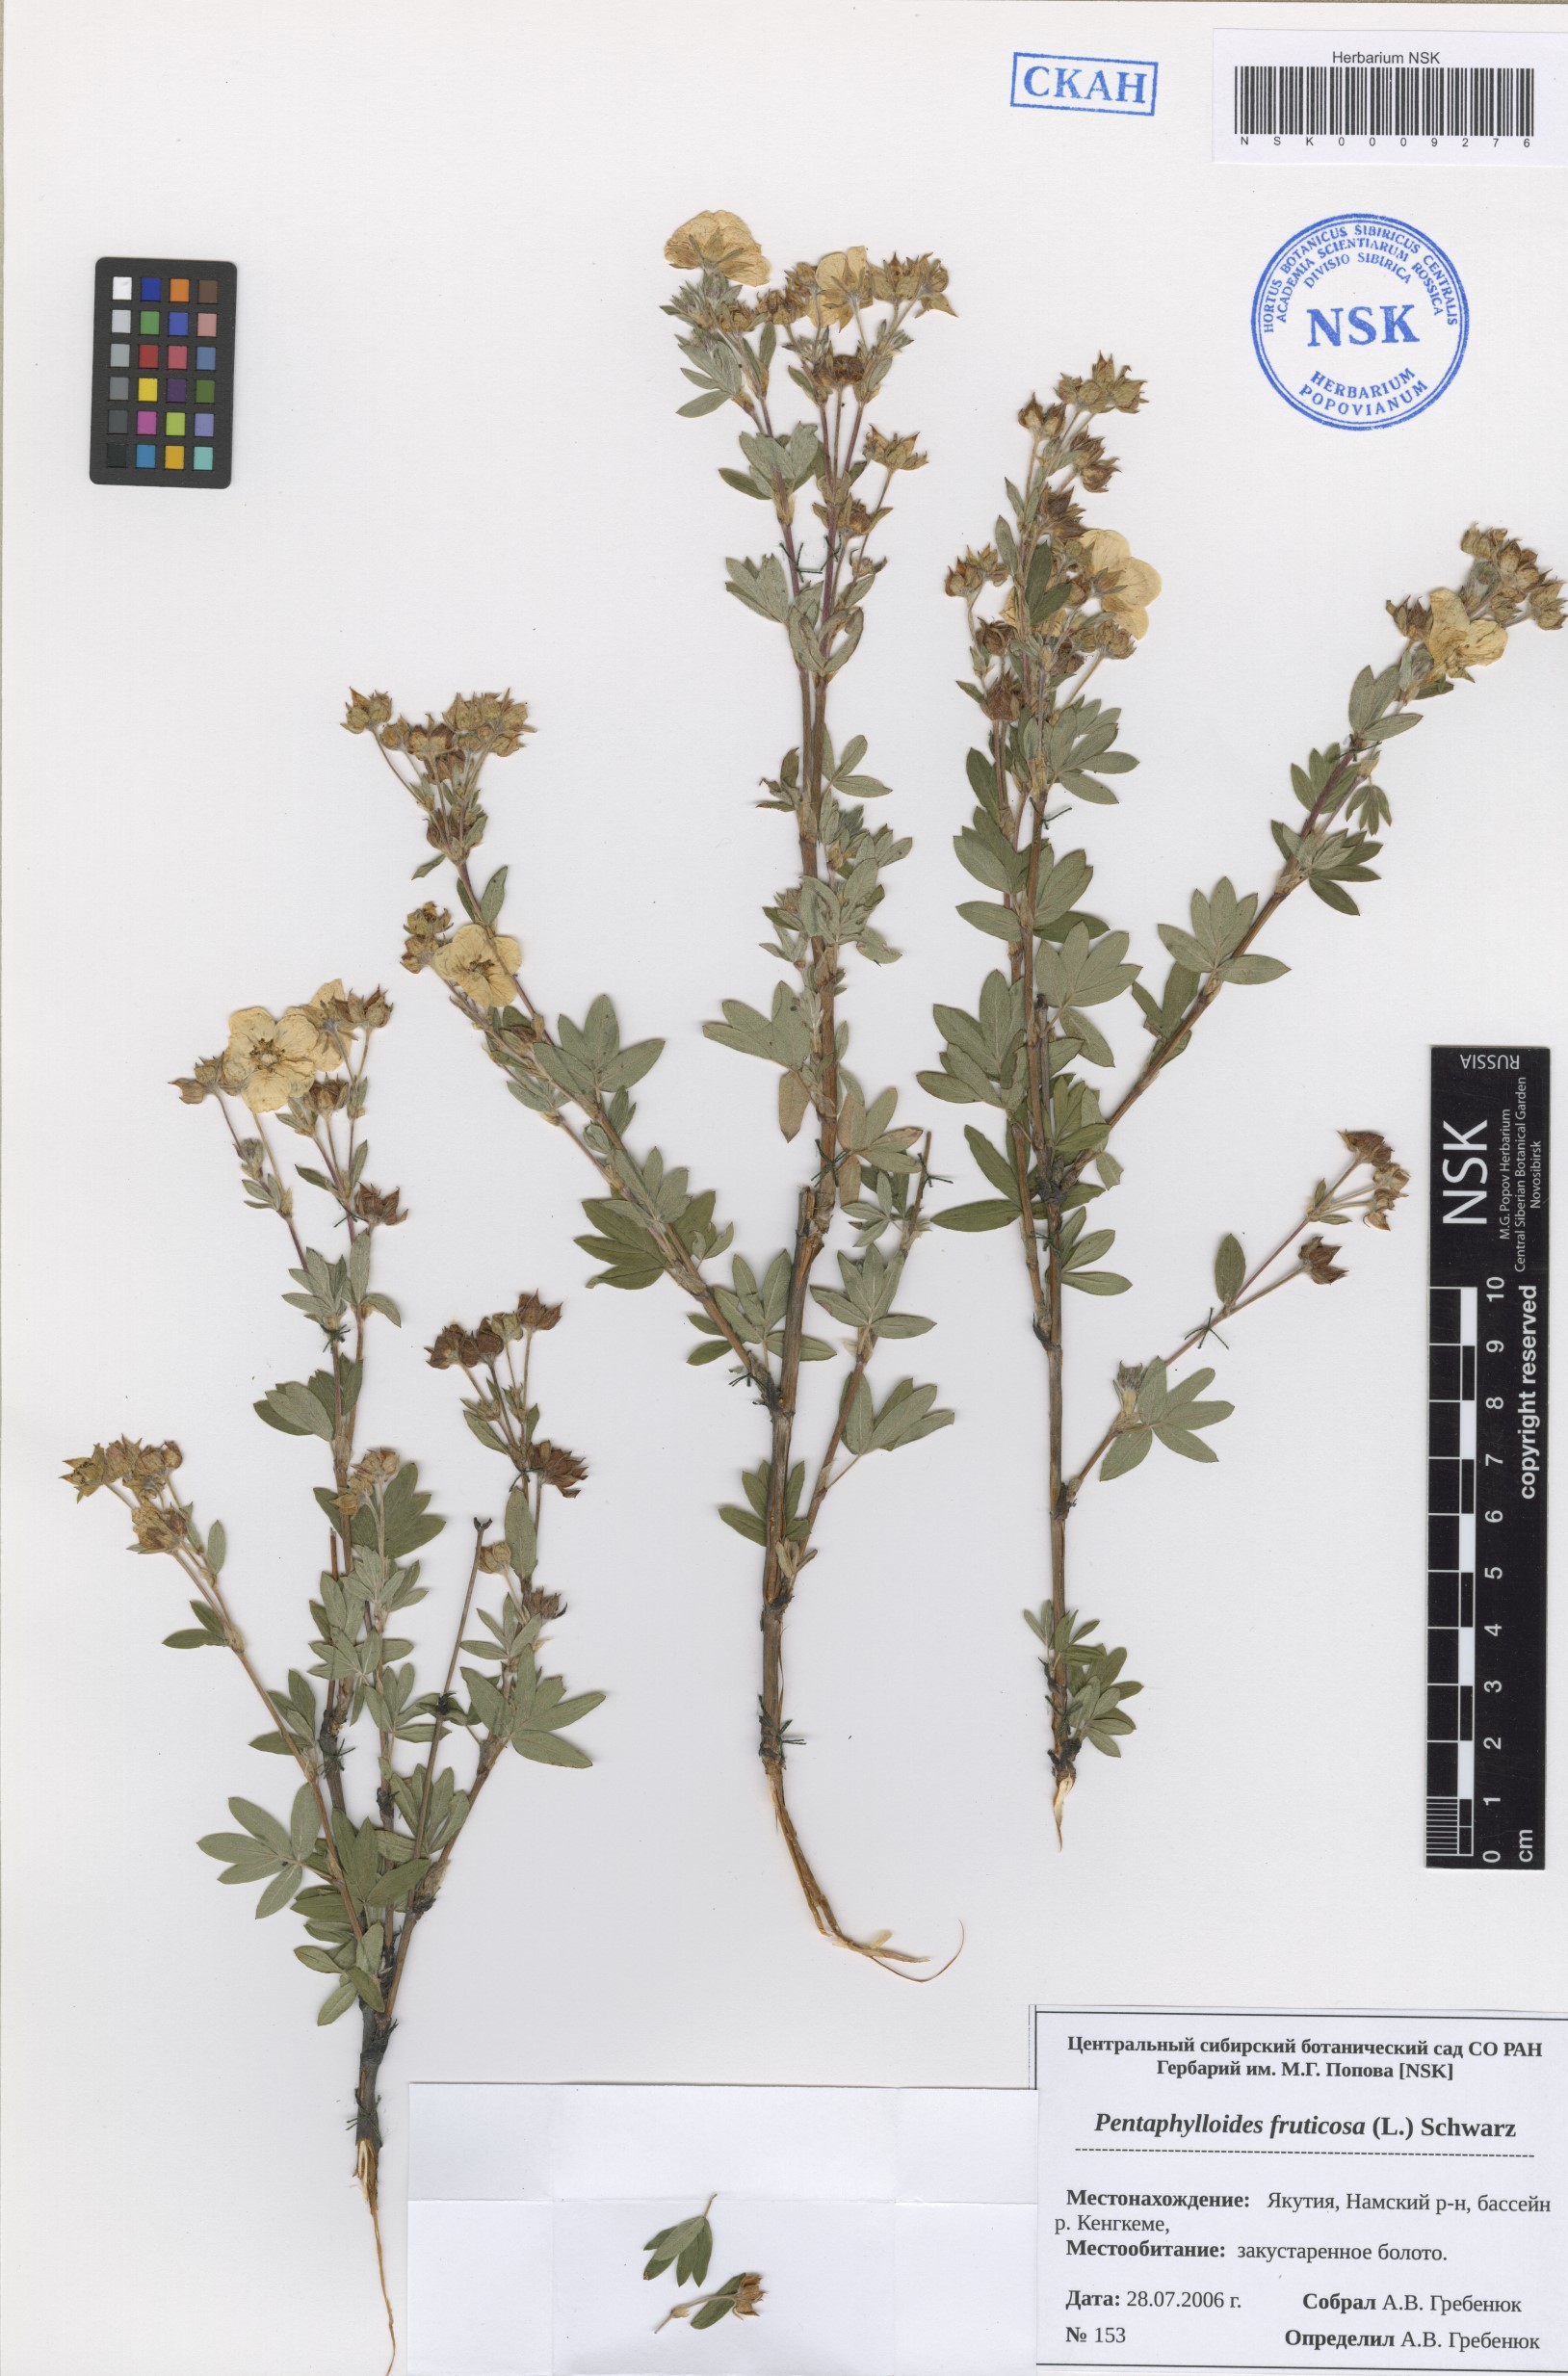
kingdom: Plantae
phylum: Tracheophyta
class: Magnoliopsida
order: Rosales
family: Rosaceae
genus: Dasiphora
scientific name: Dasiphora fruticosa
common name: Shrubby cinquefoil
